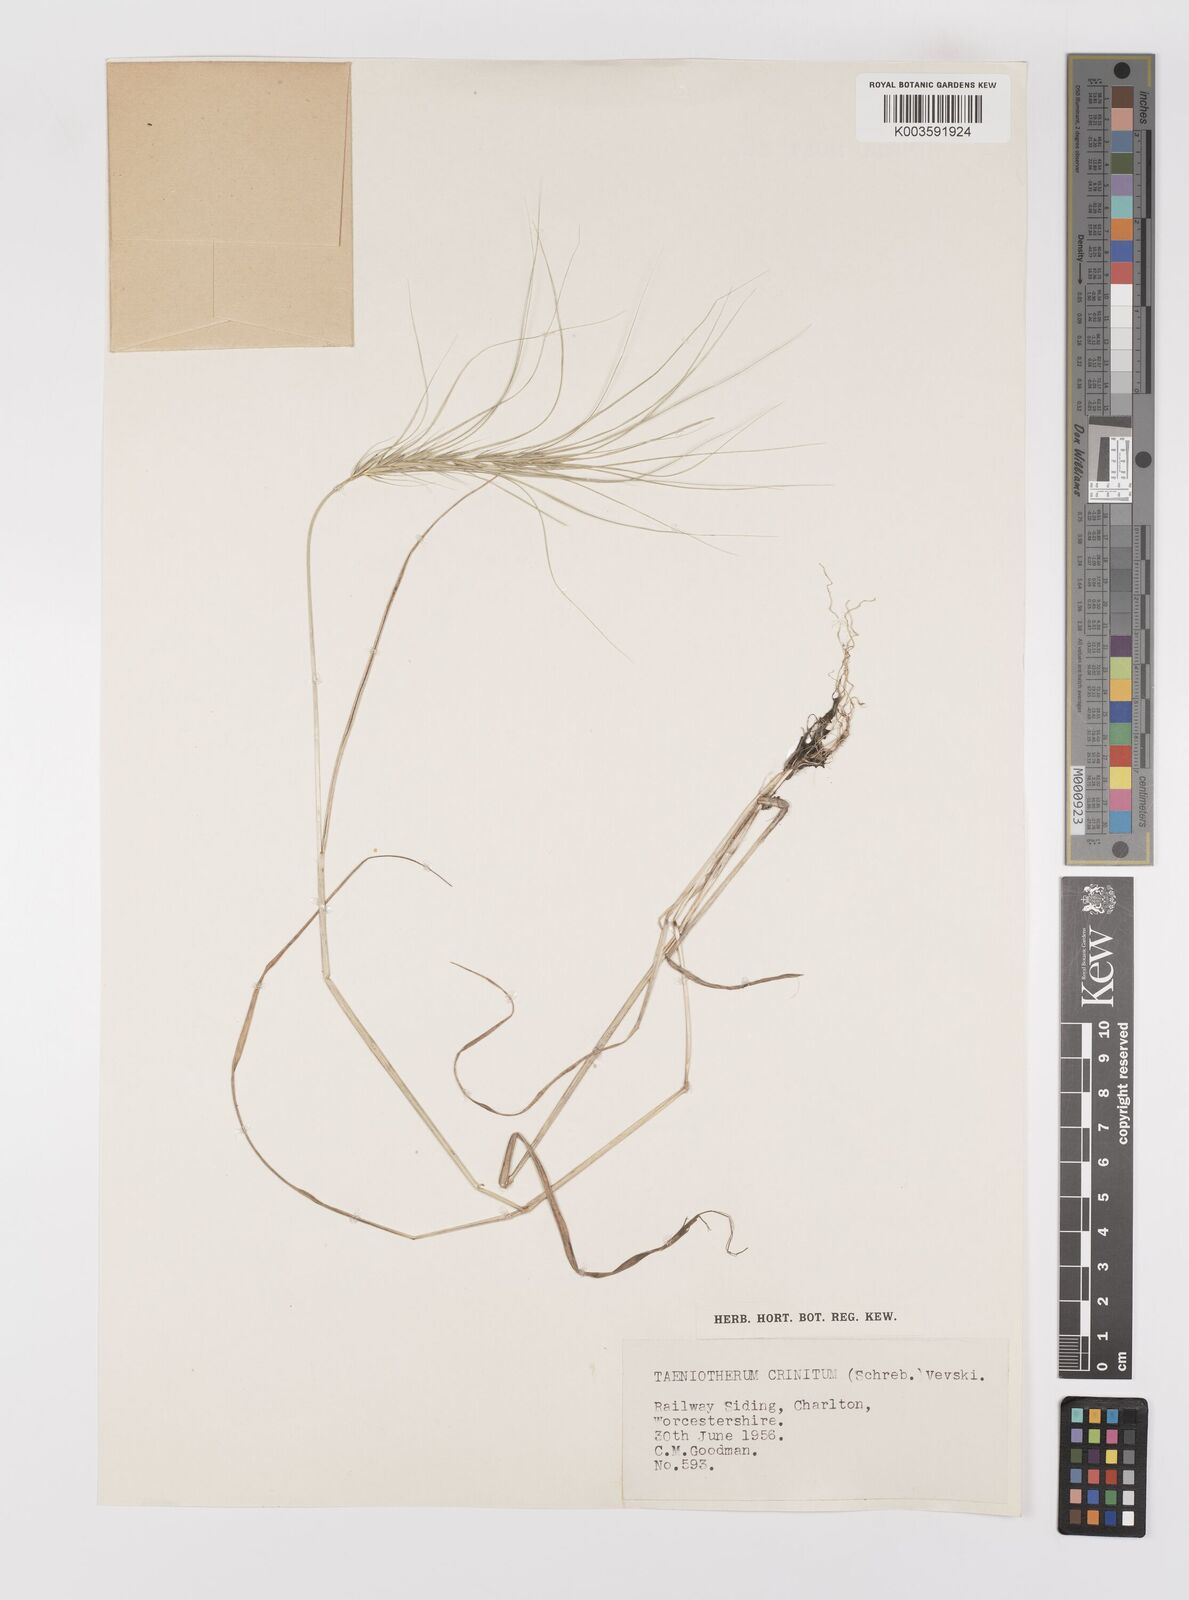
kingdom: Plantae
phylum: Tracheophyta
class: Liliopsida
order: Poales
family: Poaceae
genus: Taeniatherum
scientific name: Taeniatherum caput-medusae
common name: Medusahead
